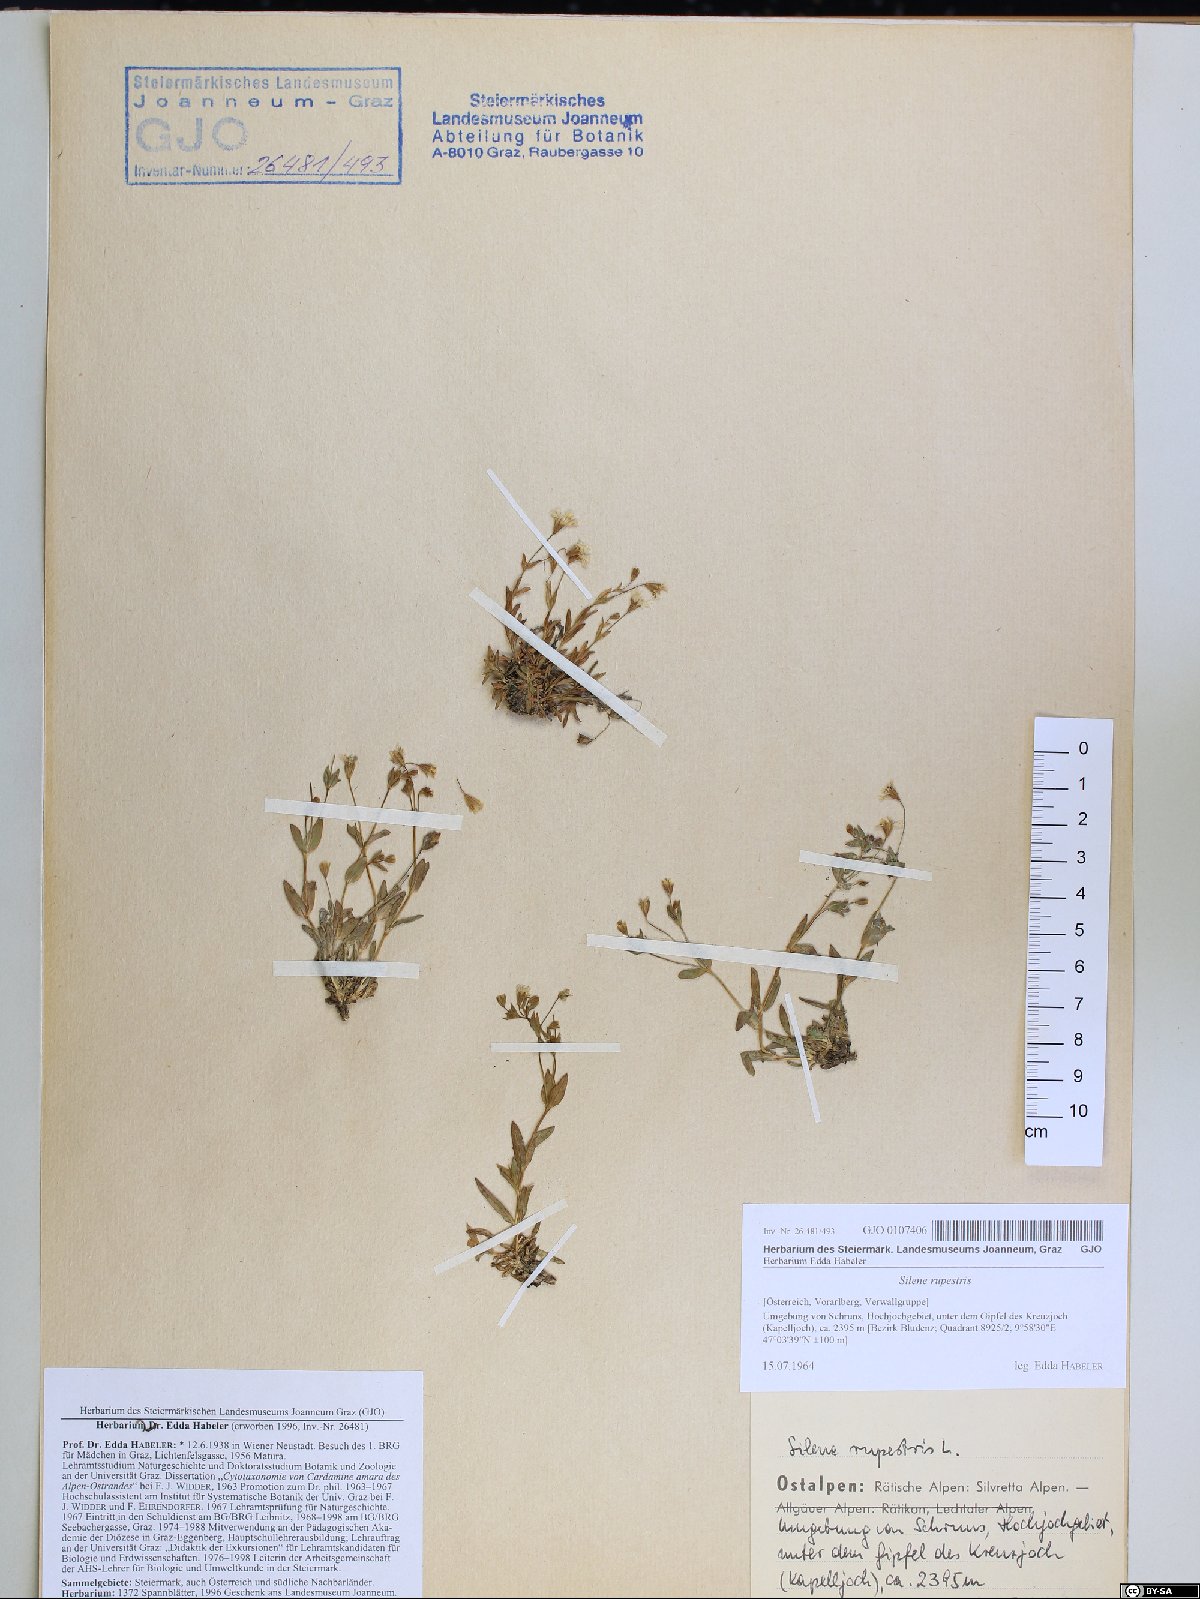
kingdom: Plantae
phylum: Tracheophyta
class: Magnoliopsida
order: Caryophyllales
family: Caryophyllaceae
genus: Atocion
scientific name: Atocion rupestre
